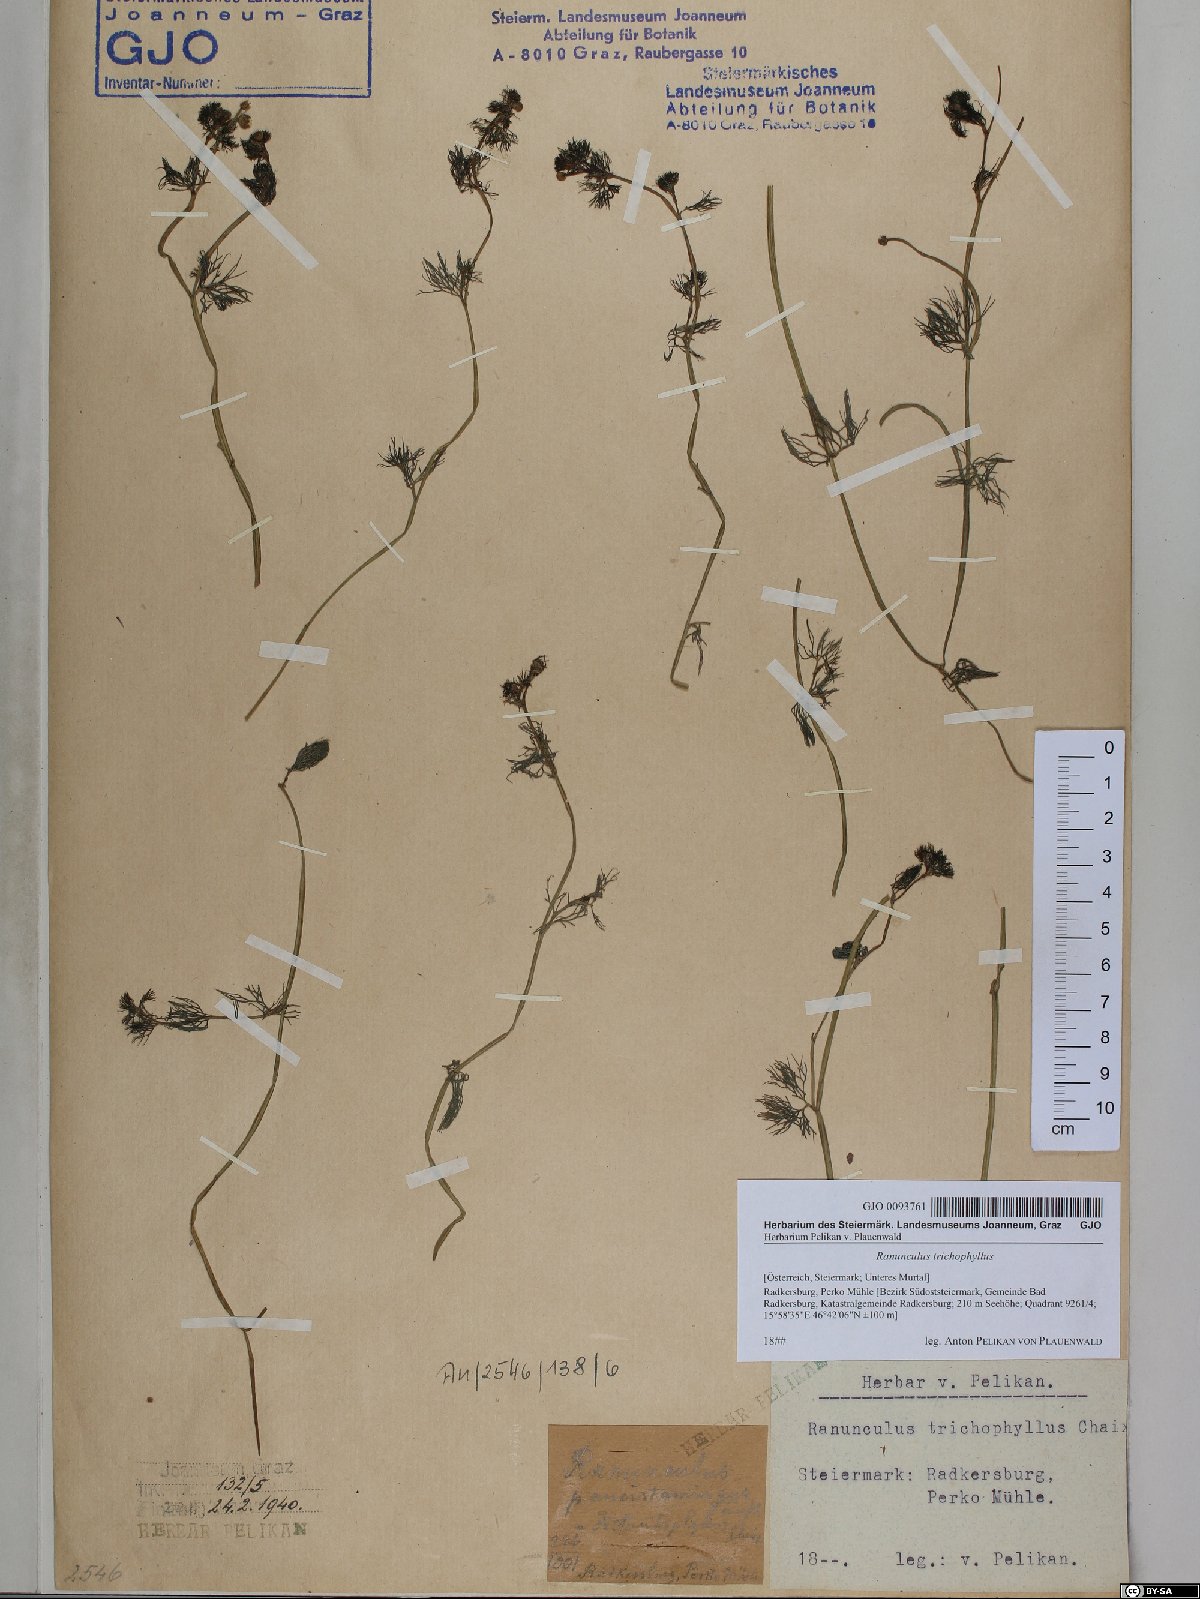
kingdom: Plantae
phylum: Tracheophyta
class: Magnoliopsida
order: Ranunculales
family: Ranunculaceae
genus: Ranunculus
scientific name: Ranunculus trichophyllus
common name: Thread-leaved water-crowfoot
